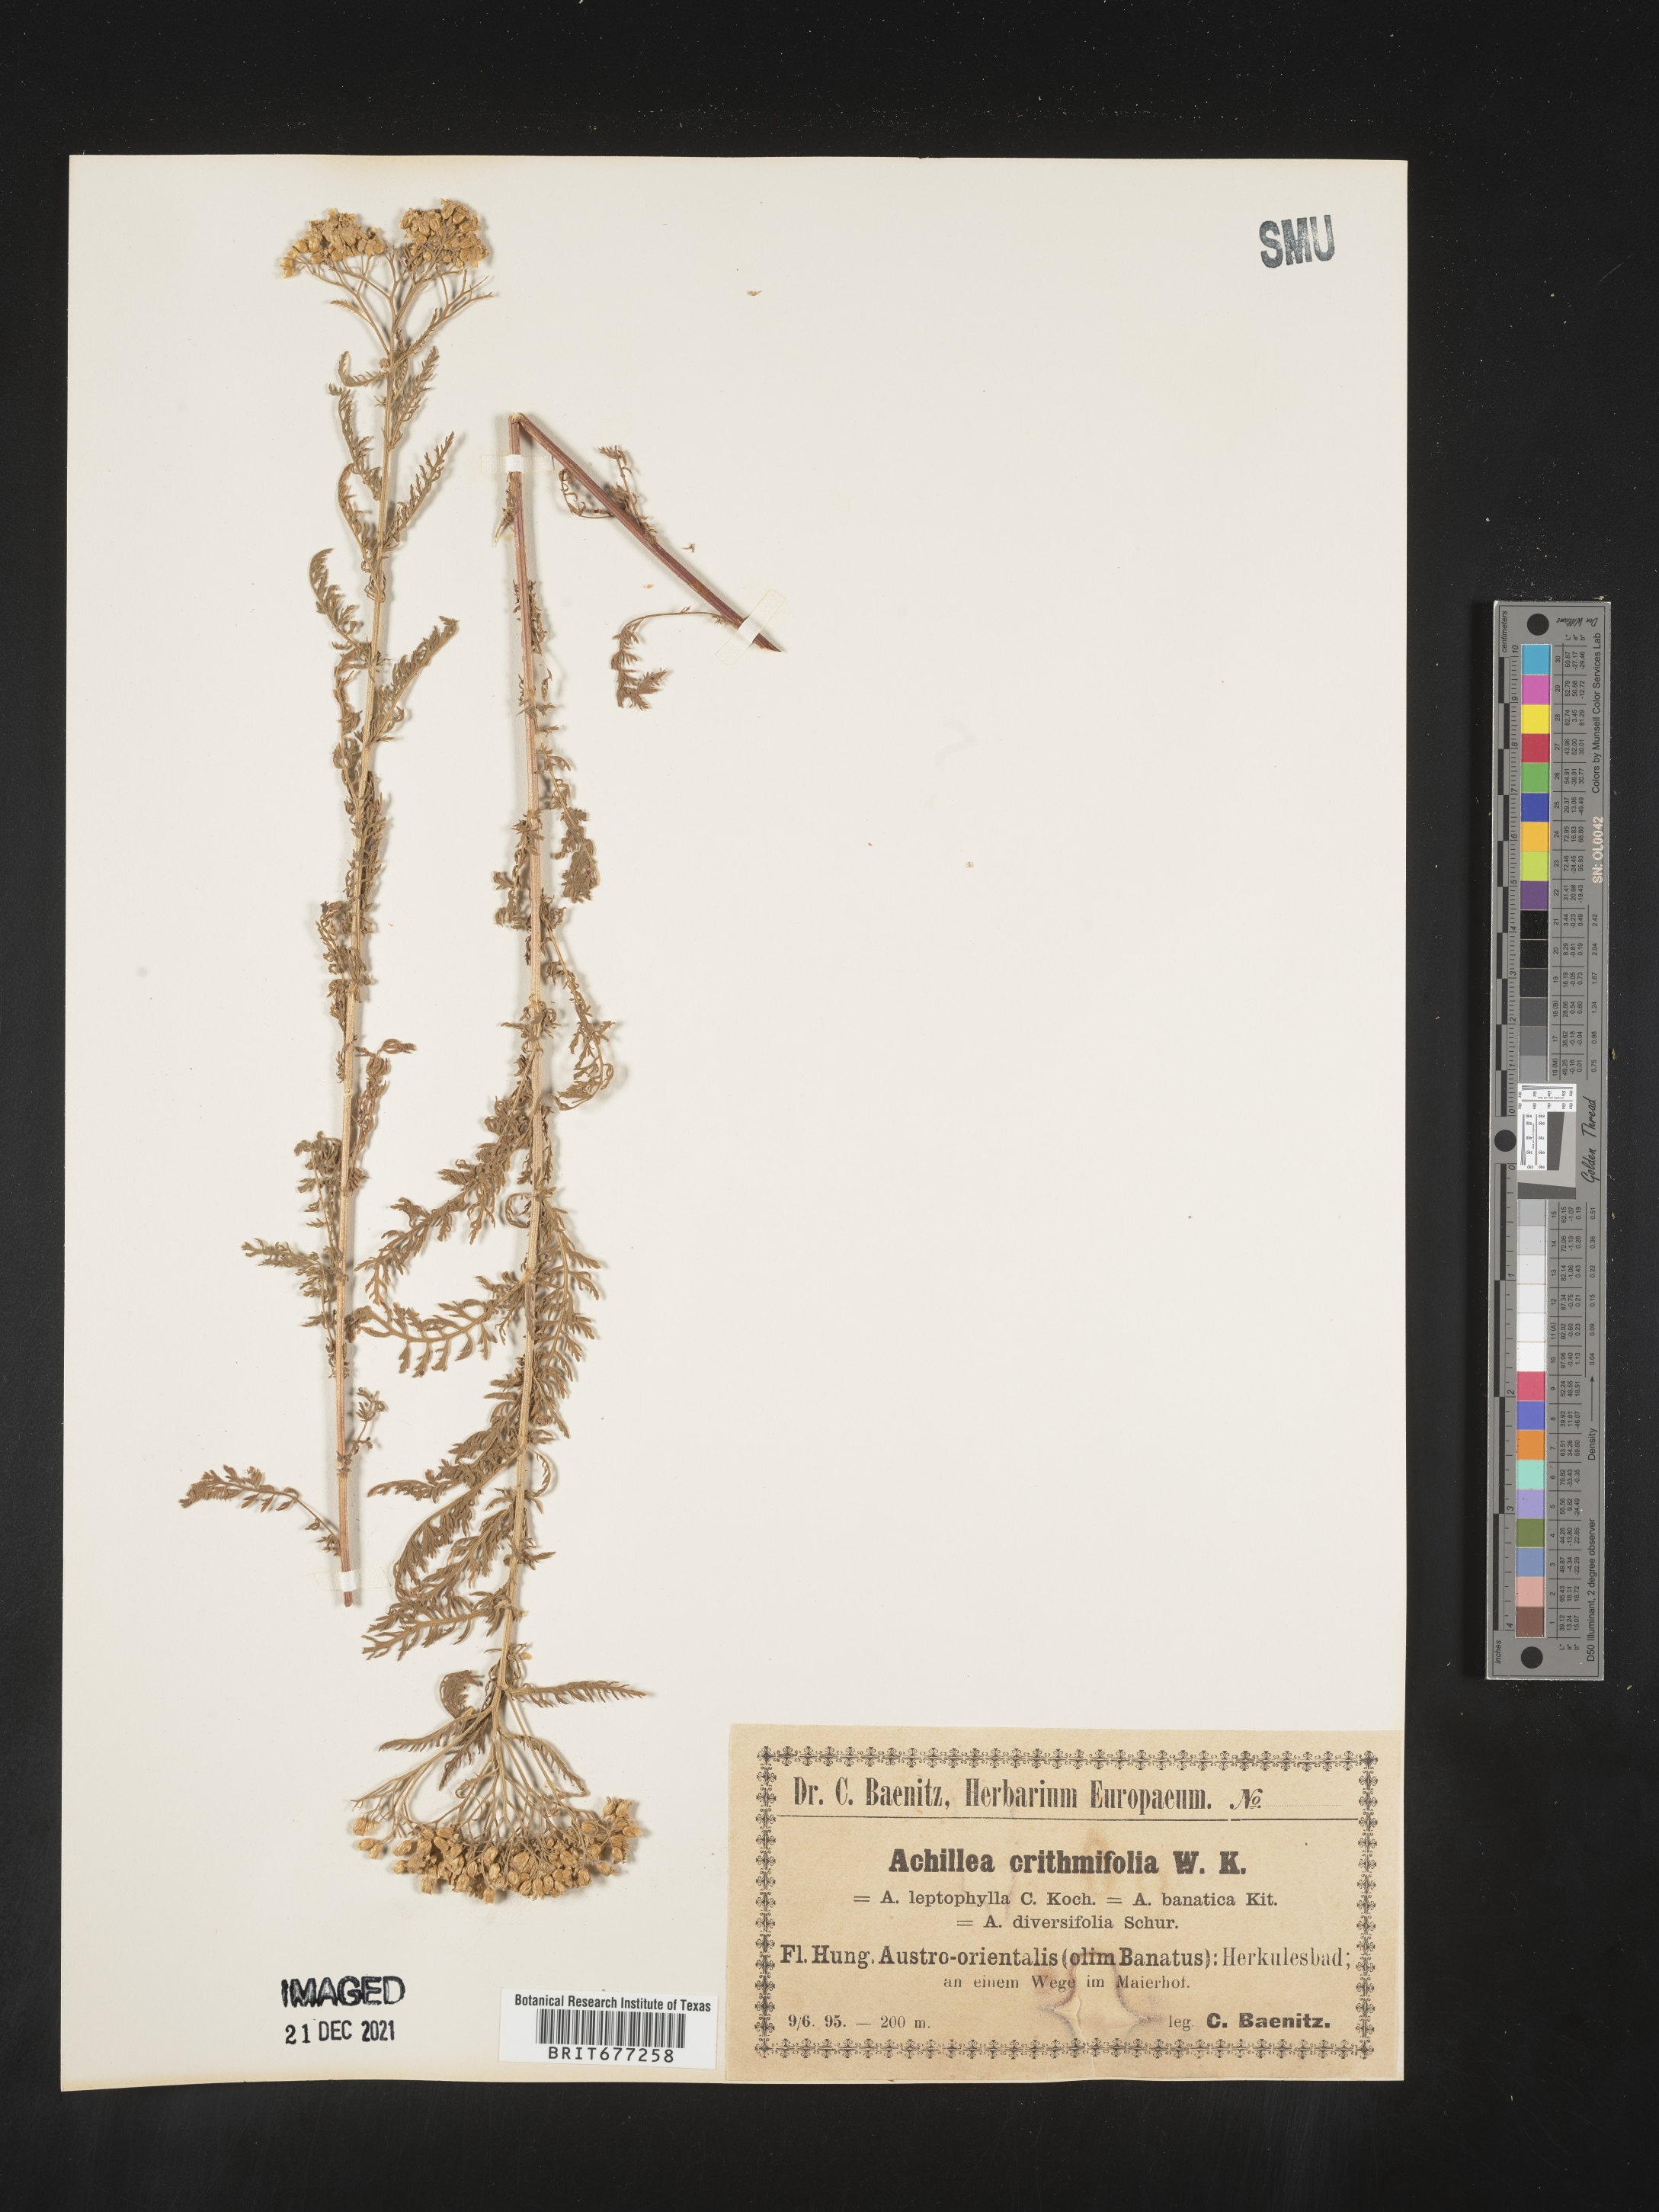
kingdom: Plantae
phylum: Tracheophyta
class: Magnoliopsida
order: Asterales
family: Asteraceae
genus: Achillea
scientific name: Achillea
